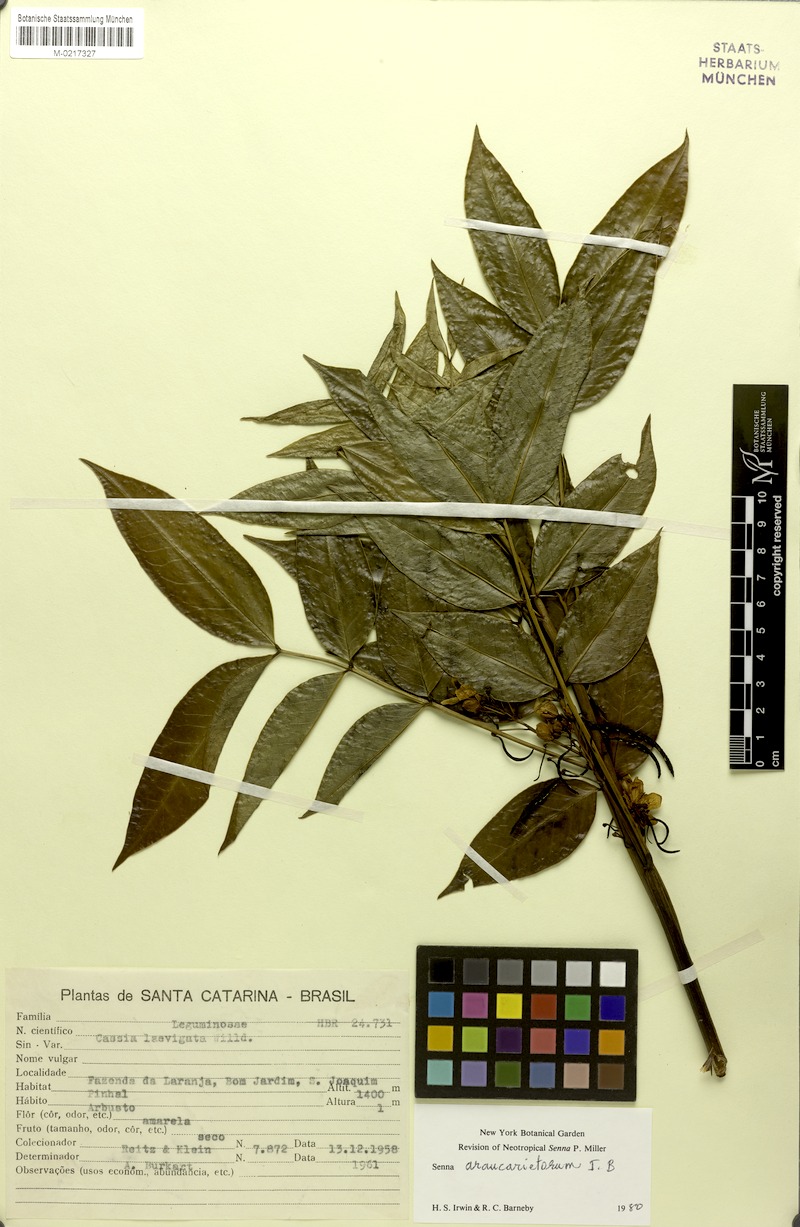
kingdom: Plantae
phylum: Tracheophyta
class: Magnoliopsida
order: Fabales
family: Fabaceae
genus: Senna
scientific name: Senna araucarietorum
